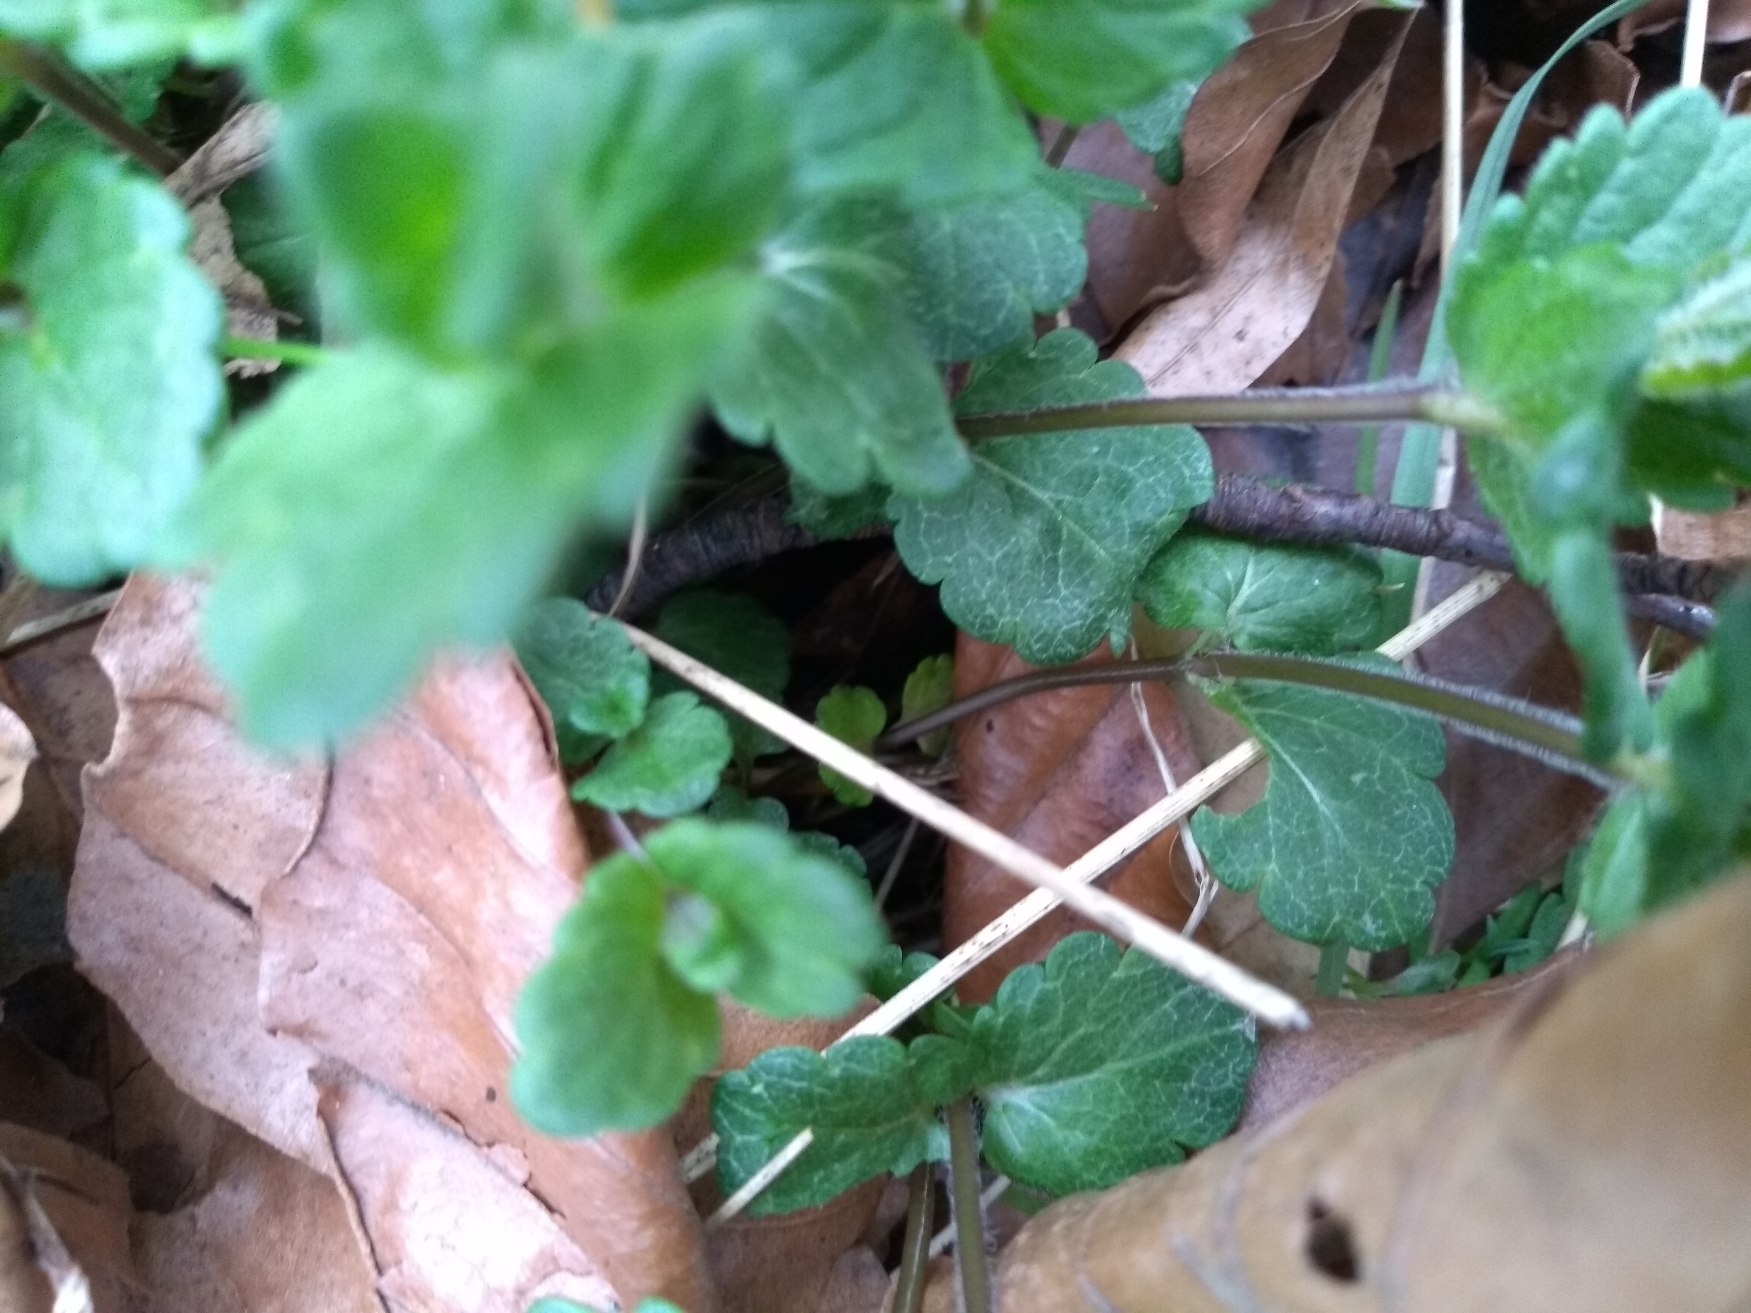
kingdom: Plantae
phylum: Tracheophyta
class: Magnoliopsida
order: Lamiales
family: Plantaginaceae
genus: Veronica
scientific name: Veronica chamaedrys
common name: Tveskægget ærenpris
